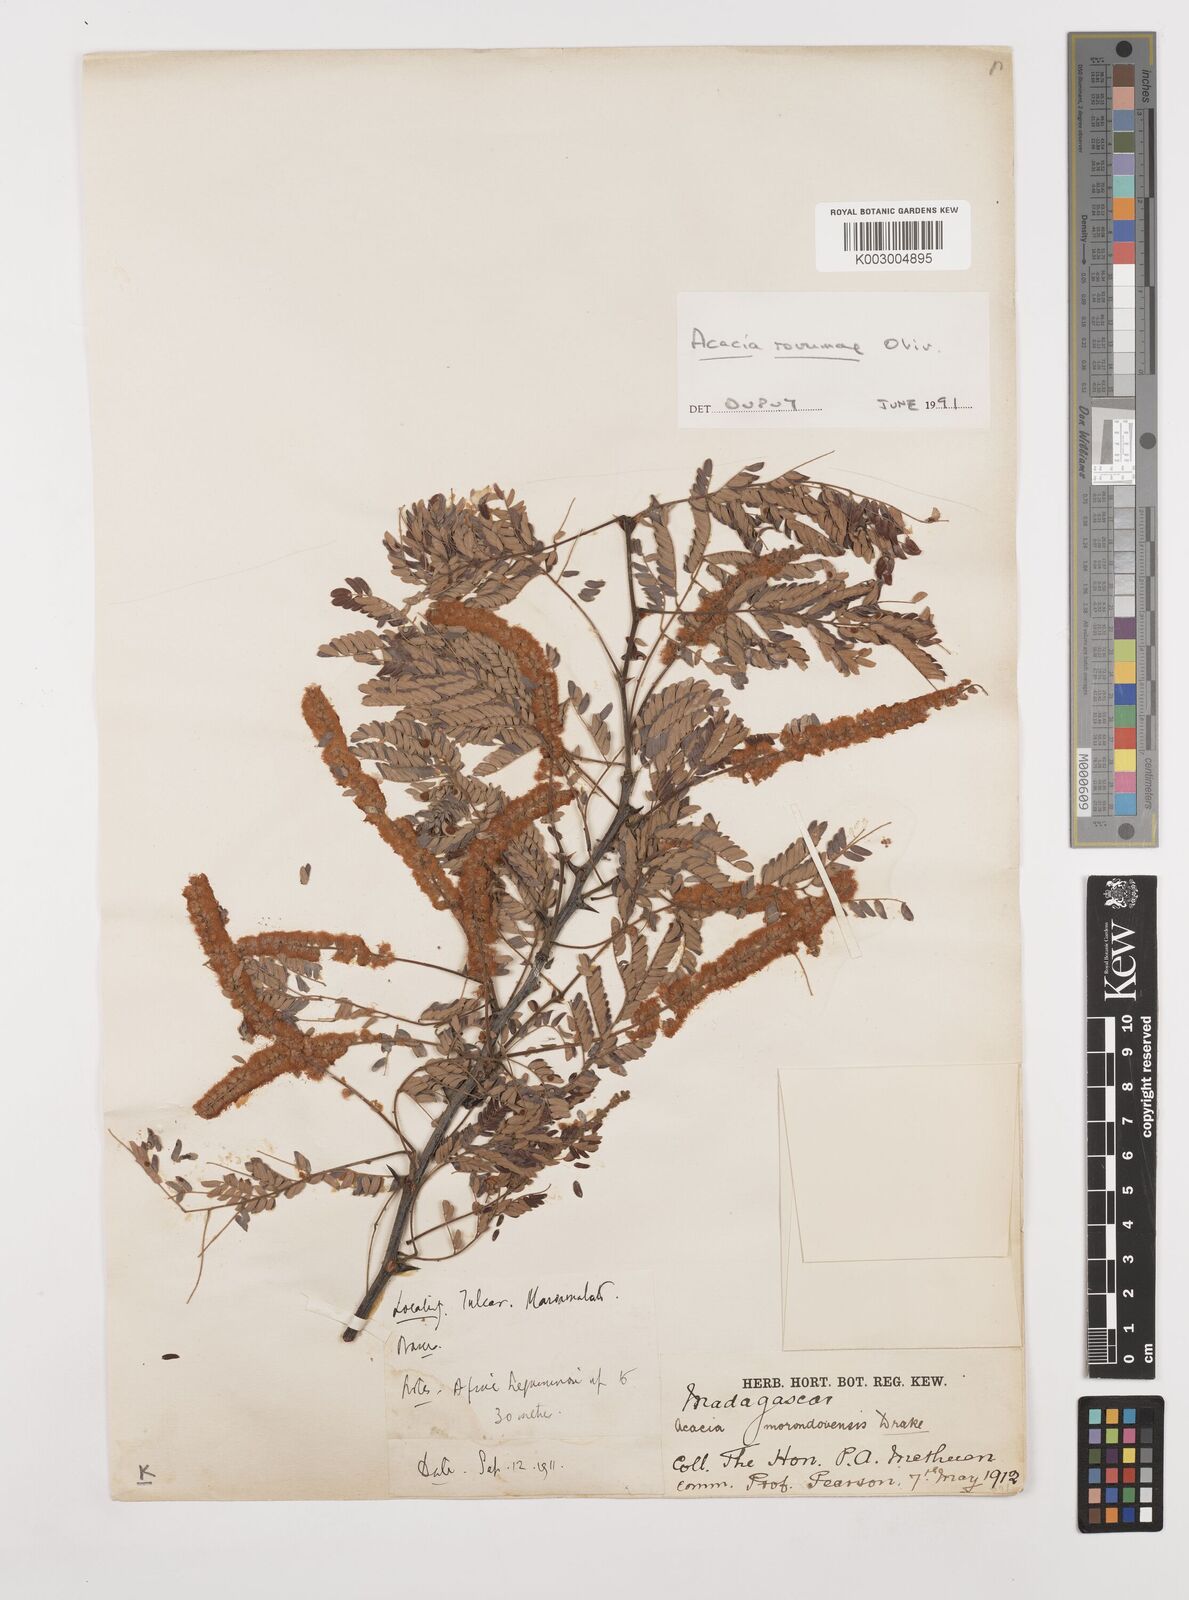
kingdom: Plantae
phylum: Tracheophyta
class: Magnoliopsida
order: Fabales
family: Fabaceae
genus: Senegalia
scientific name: Senegalia rovumae
